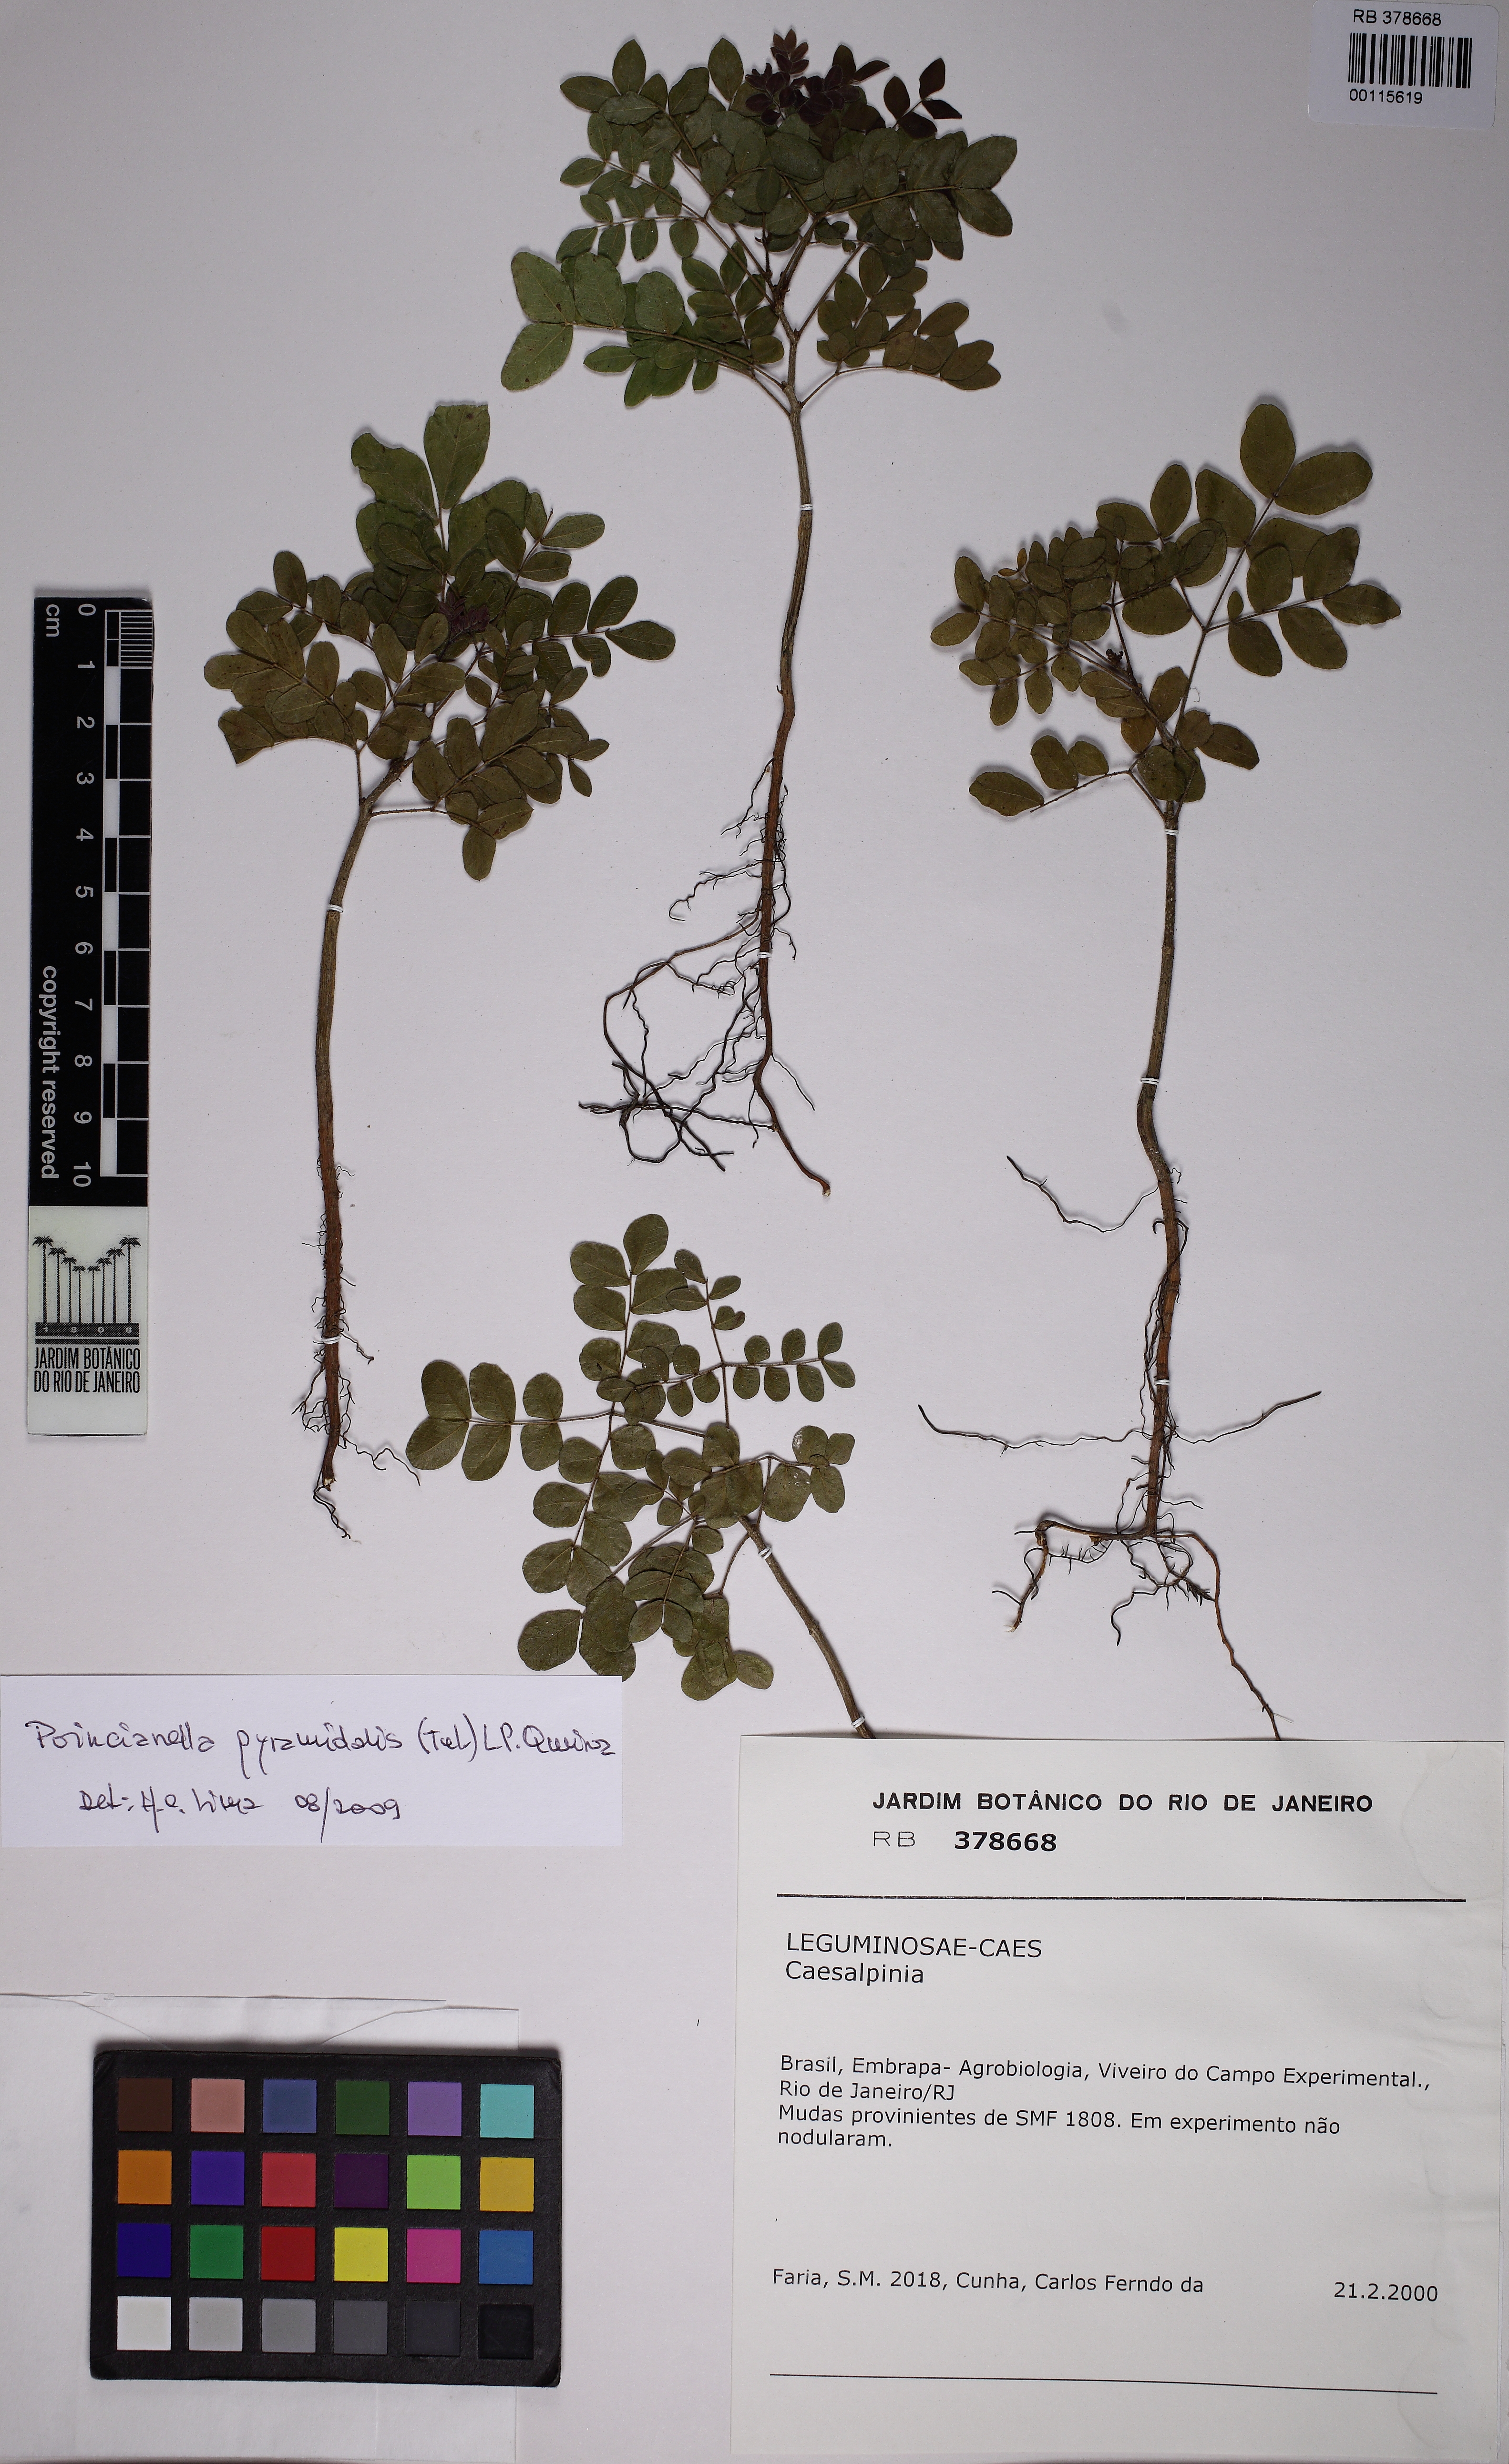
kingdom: Plantae
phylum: Tracheophyta
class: Magnoliopsida
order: Fabales
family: Fabaceae
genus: Cenostigma
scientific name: Cenostigma pyramidale
